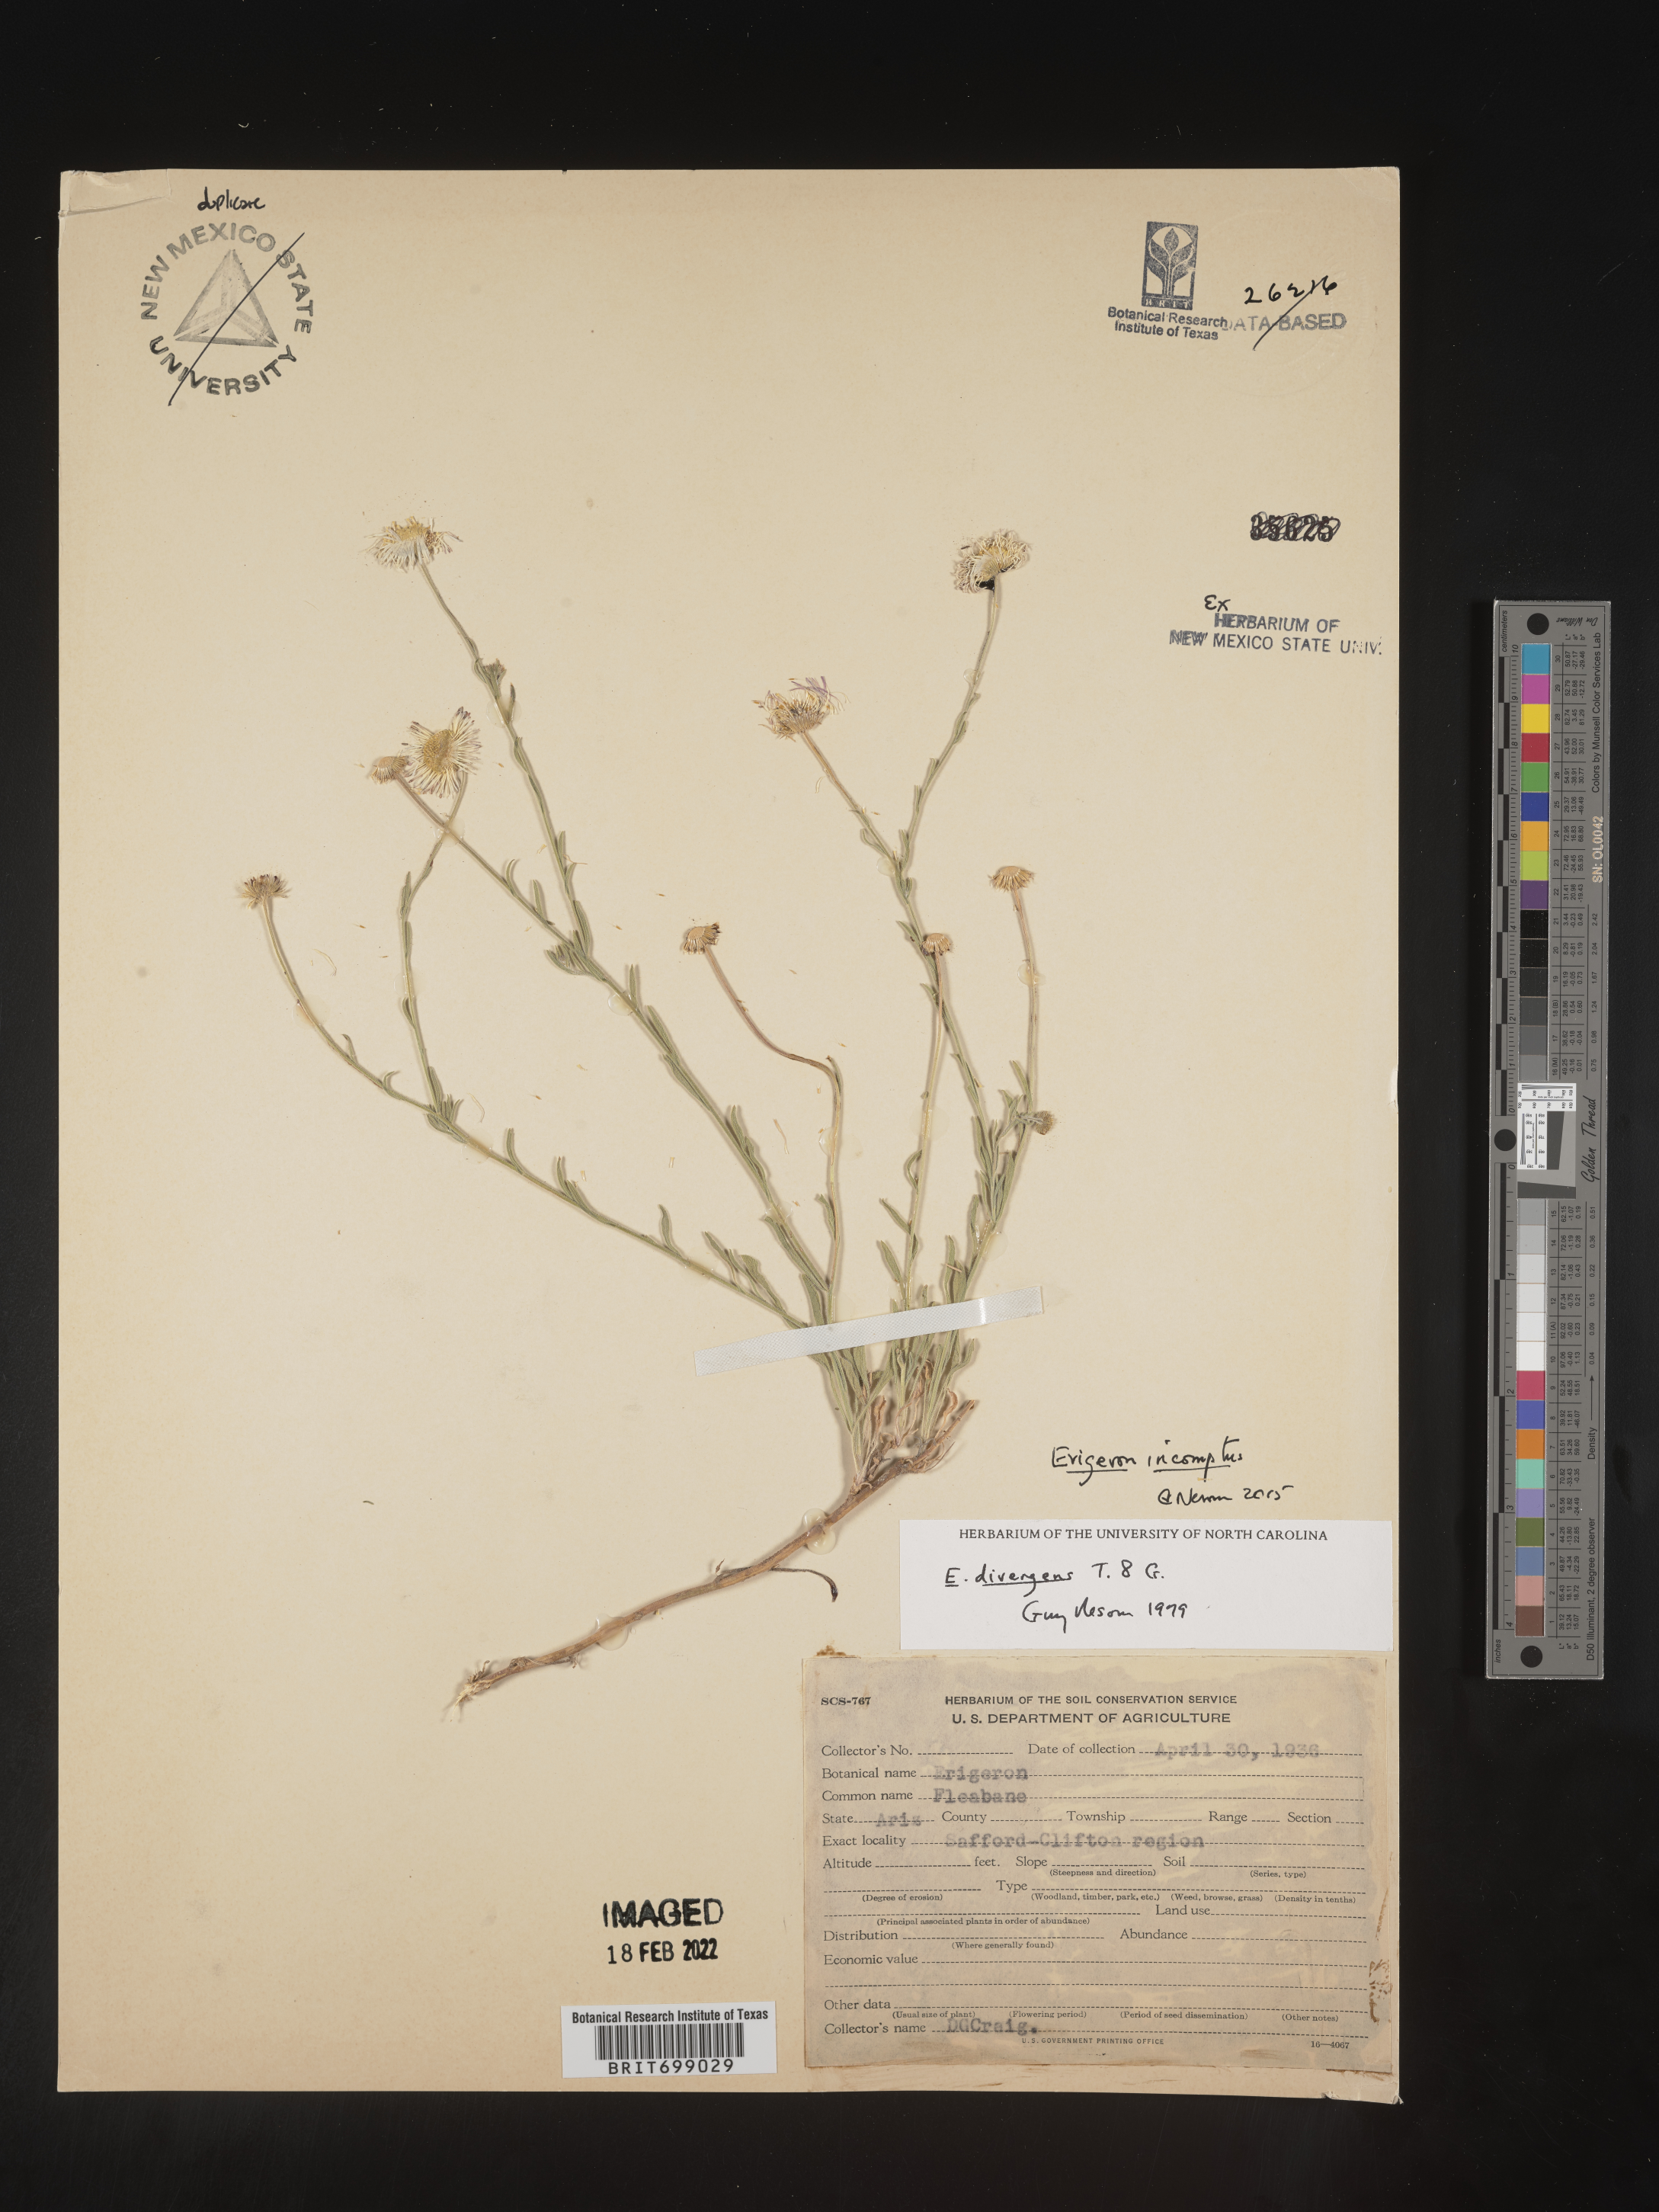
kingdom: Plantae
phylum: Tracheophyta
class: Magnoliopsida
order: Asterales
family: Asteraceae
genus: Erigeron
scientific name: Erigeron tracyi
